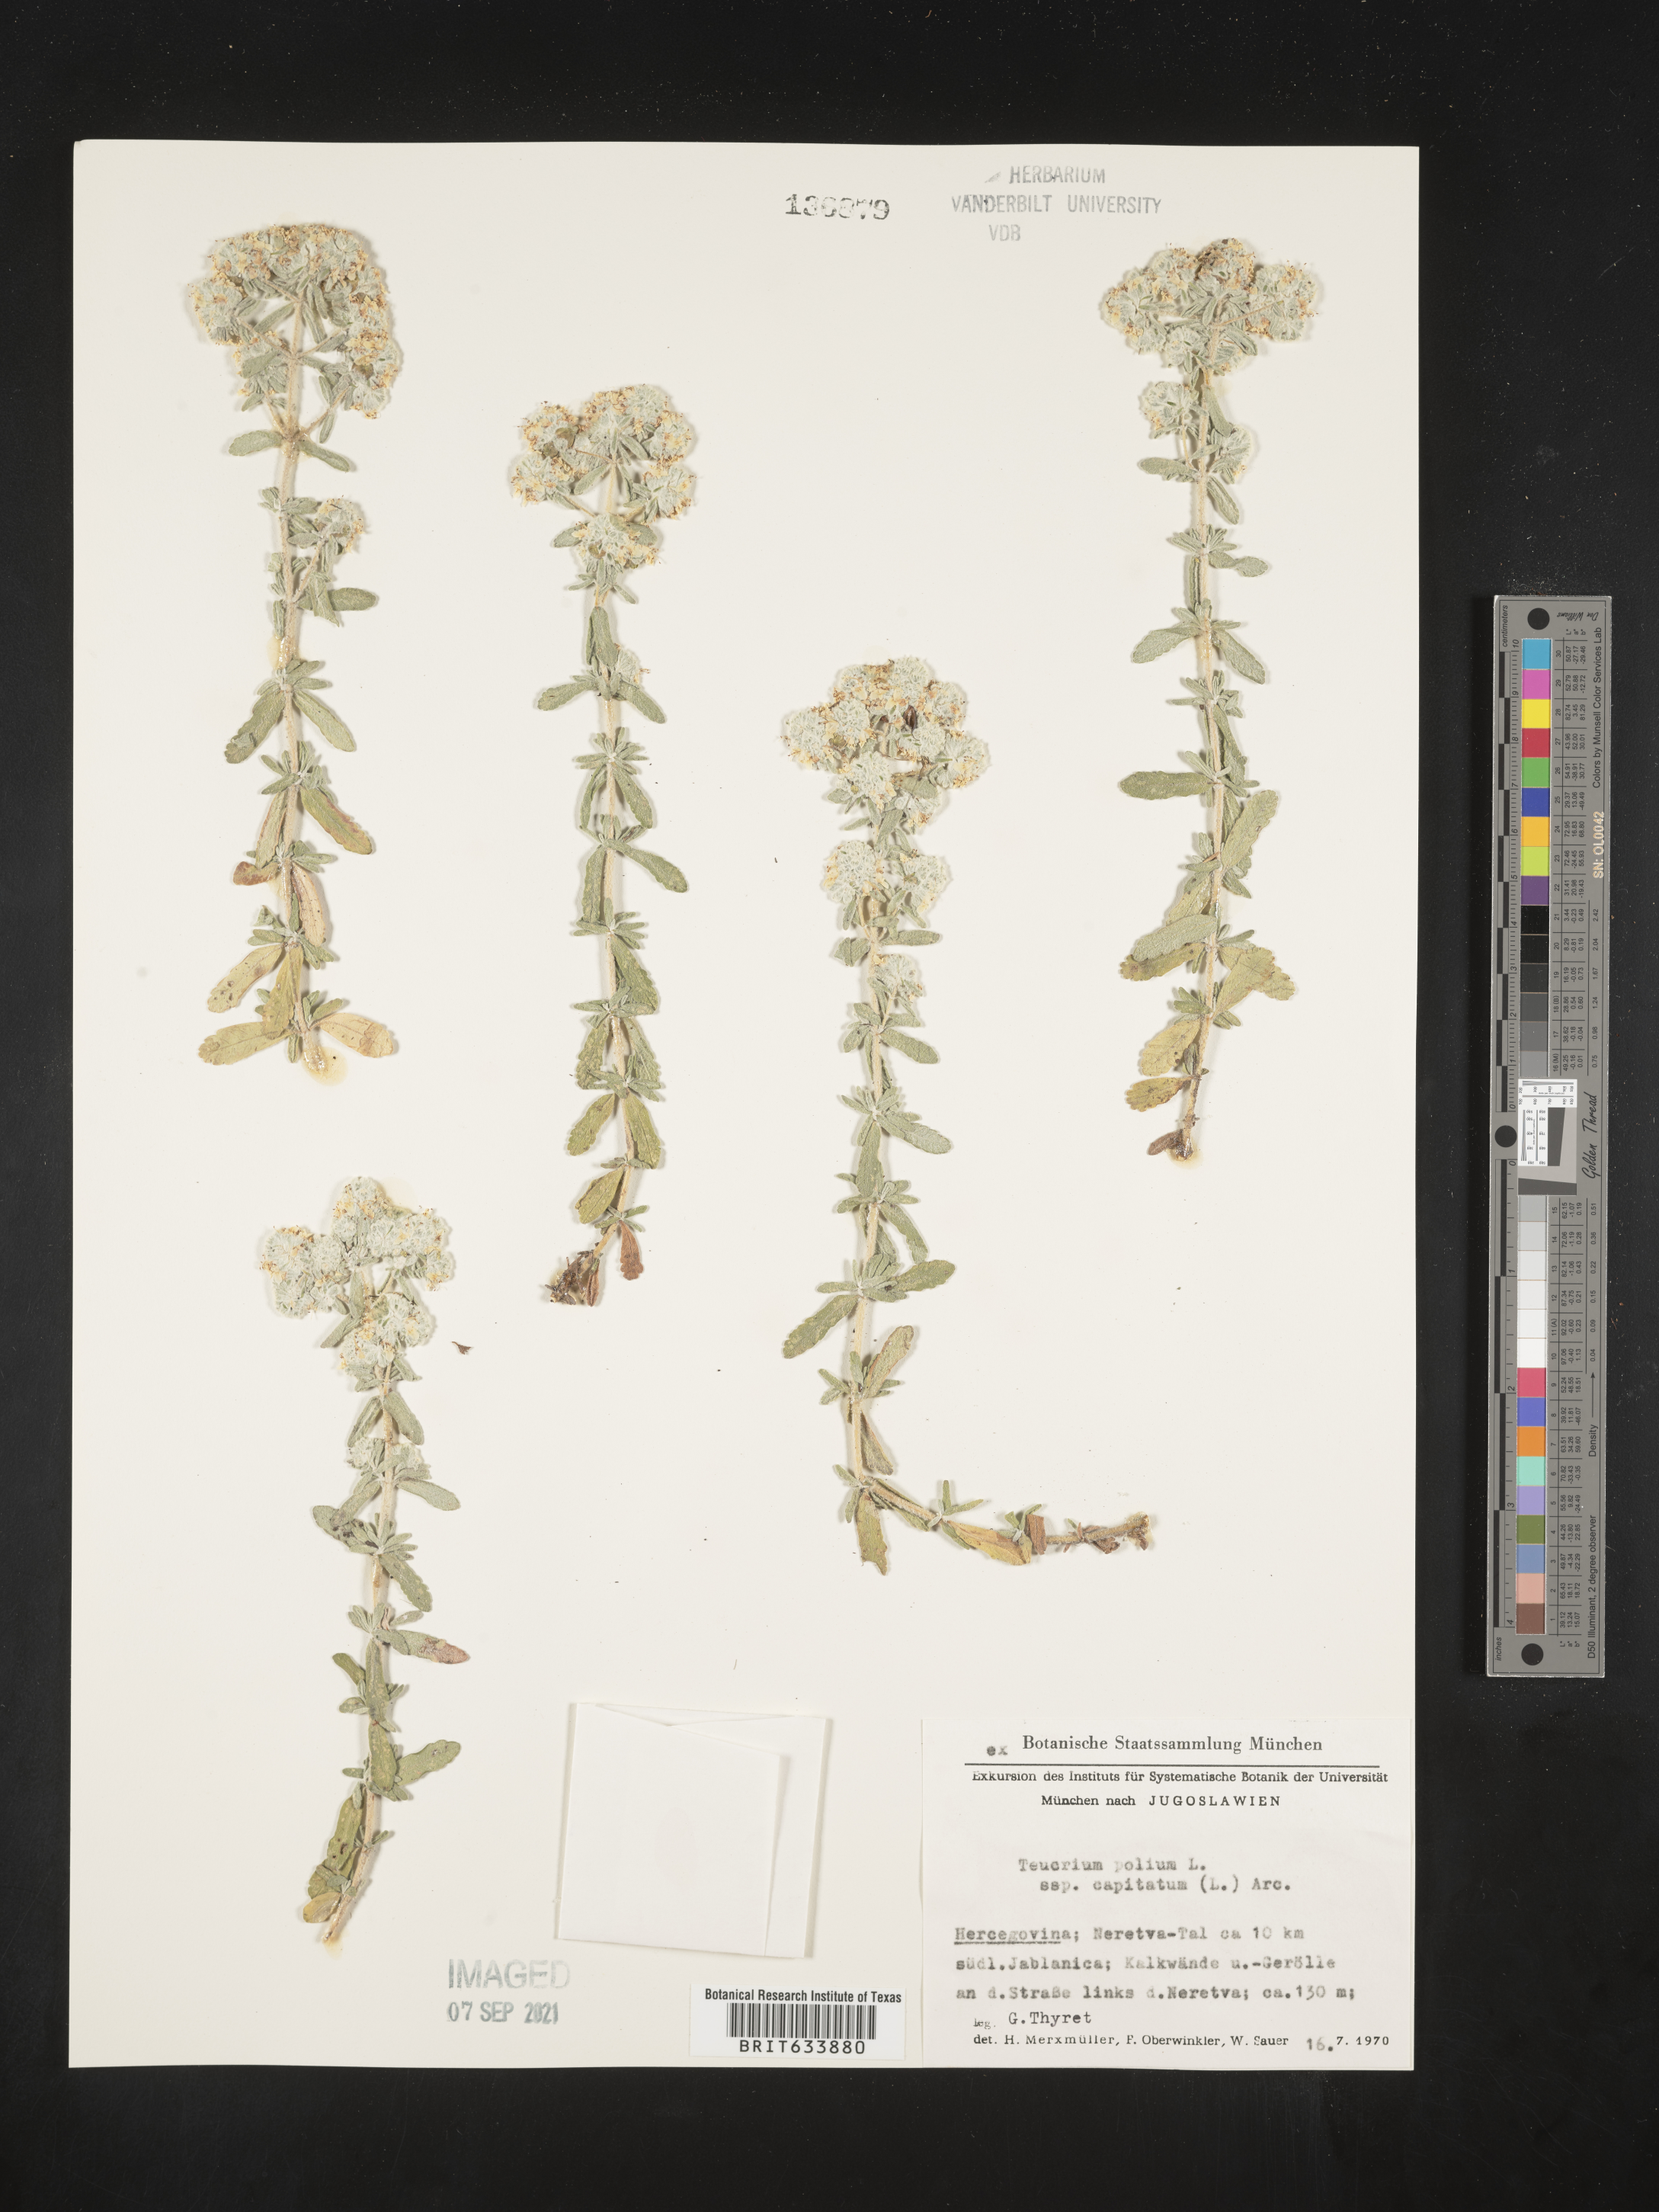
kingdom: Plantae
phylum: Tracheophyta
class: Magnoliopsida
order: Lamiales
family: Lamiaceae
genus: Teucrium
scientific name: Teucrium
